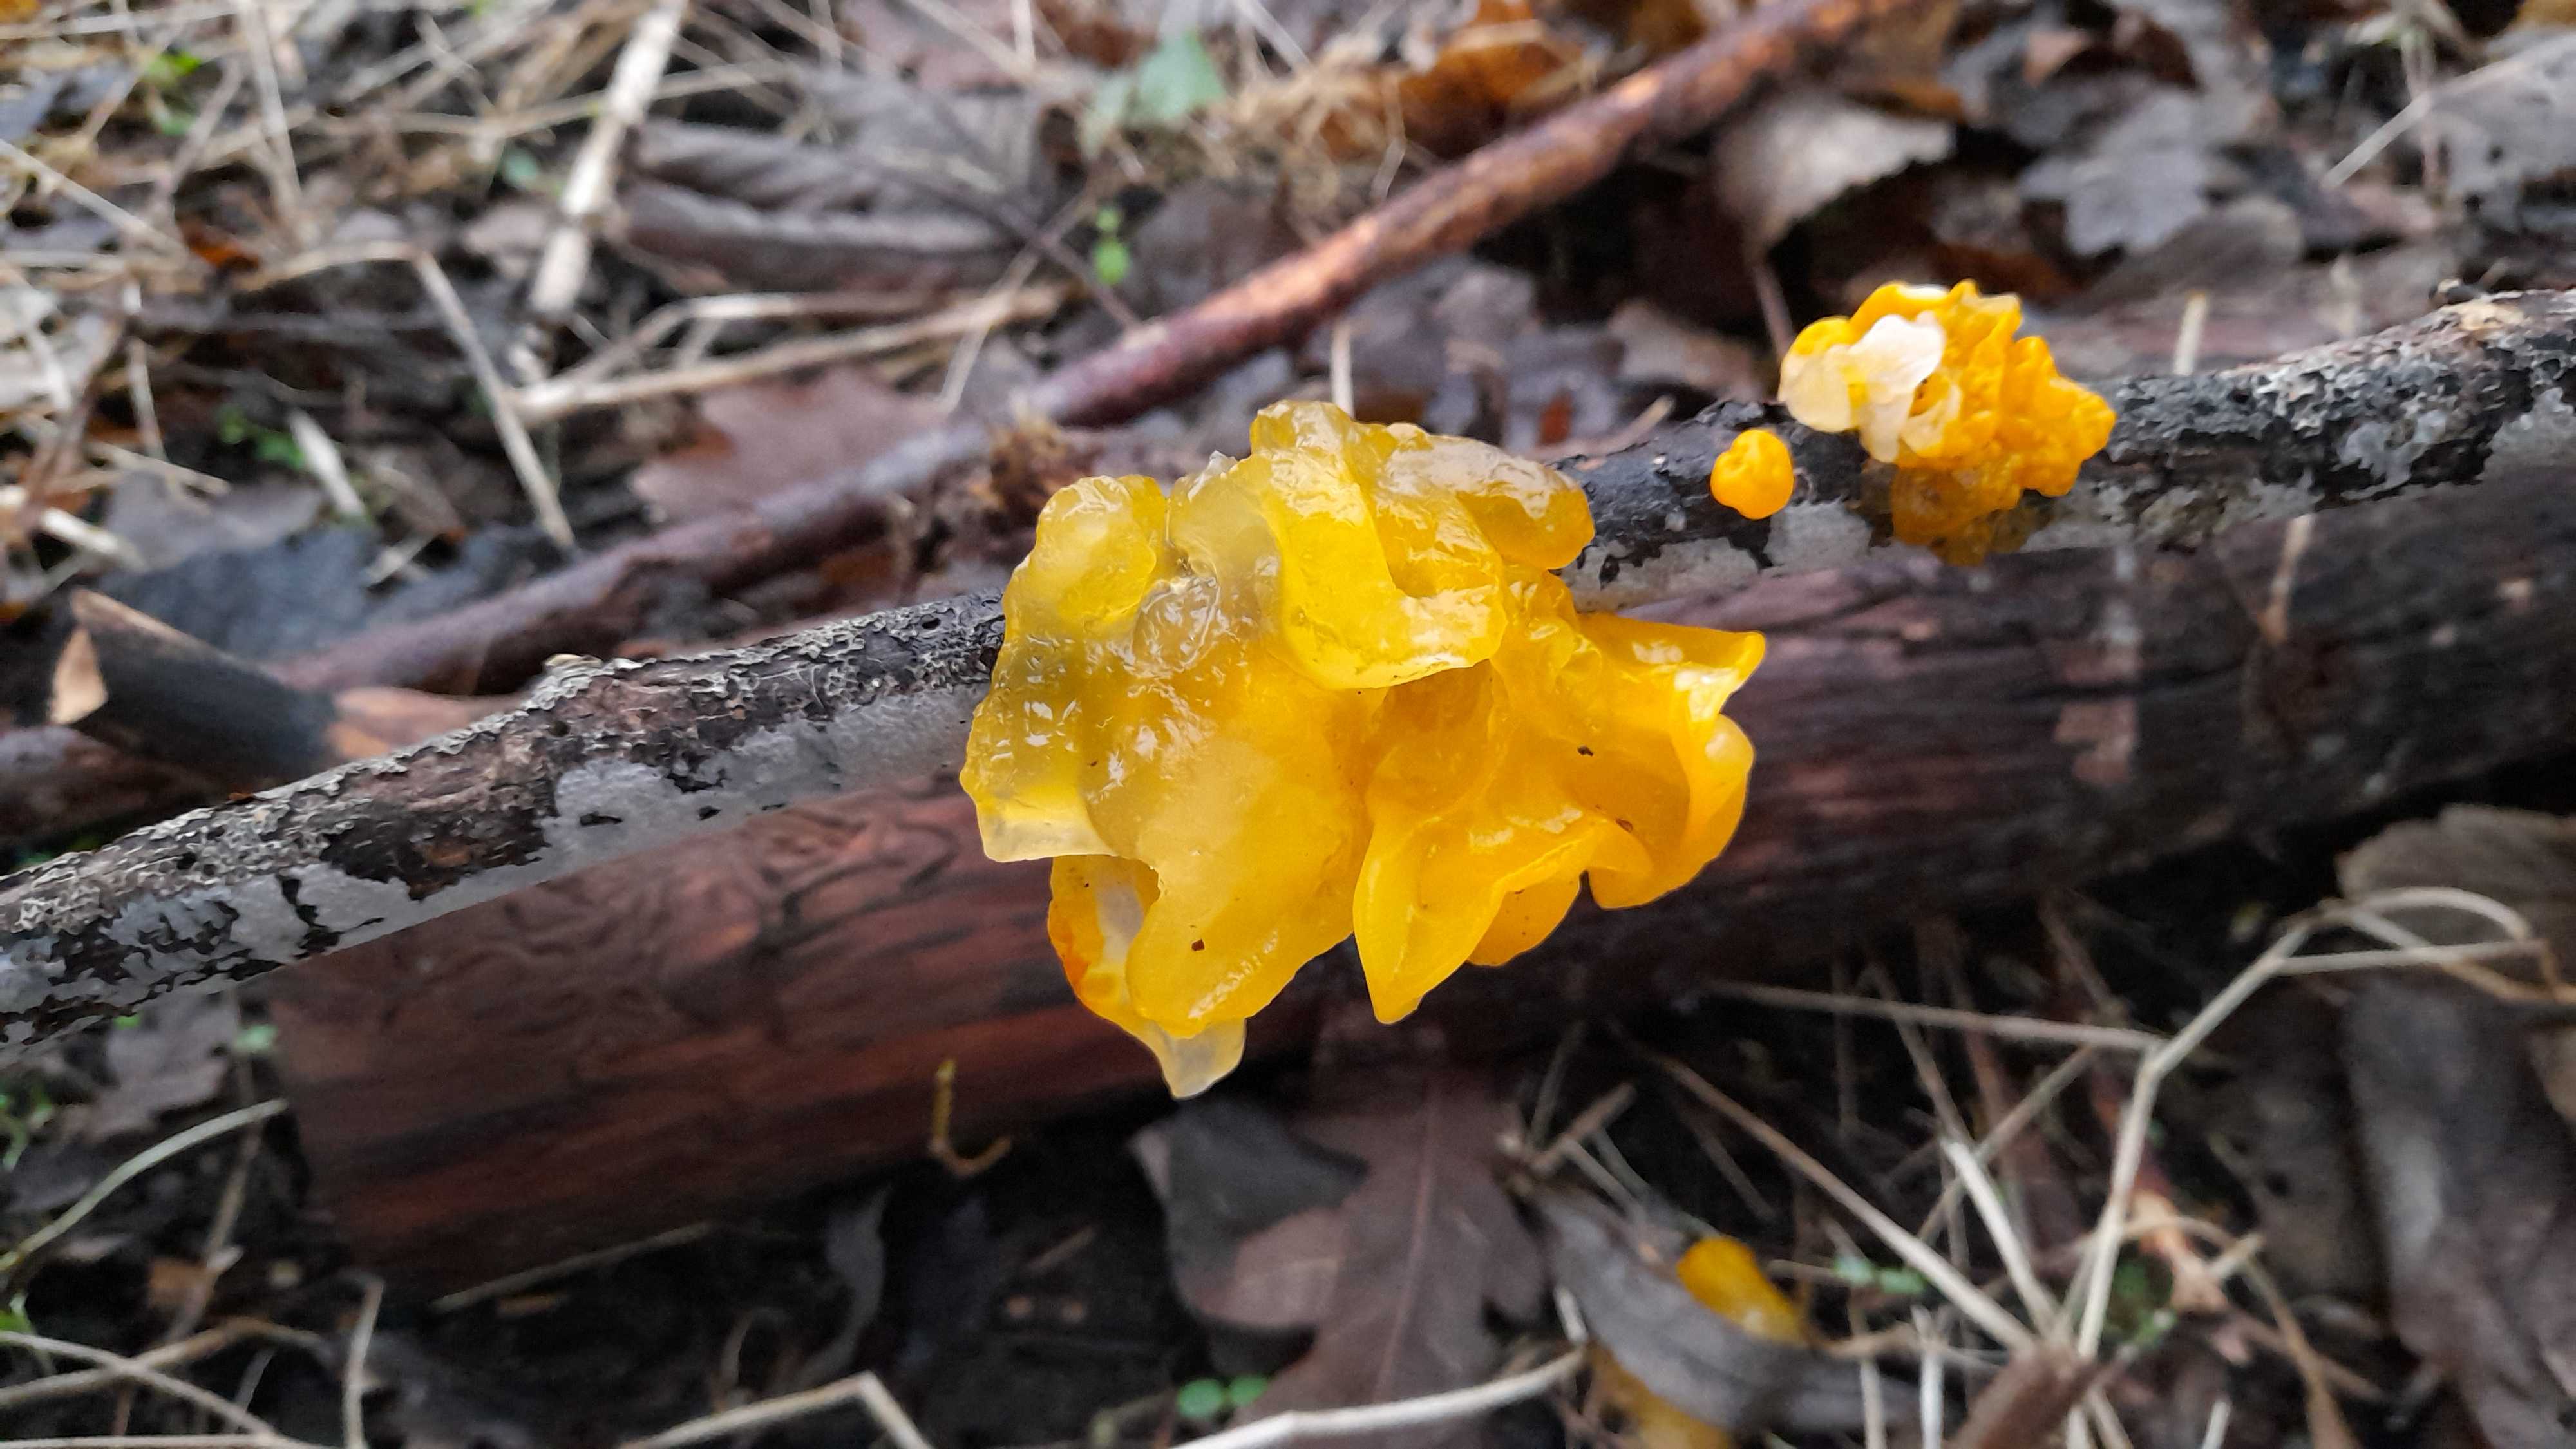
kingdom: Fungi
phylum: Basidiomycota
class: Tremellomycetes
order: Tremellales
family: Tremellaceae
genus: Tremella
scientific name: Tremella mesenterica
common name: gul bævresvamp
